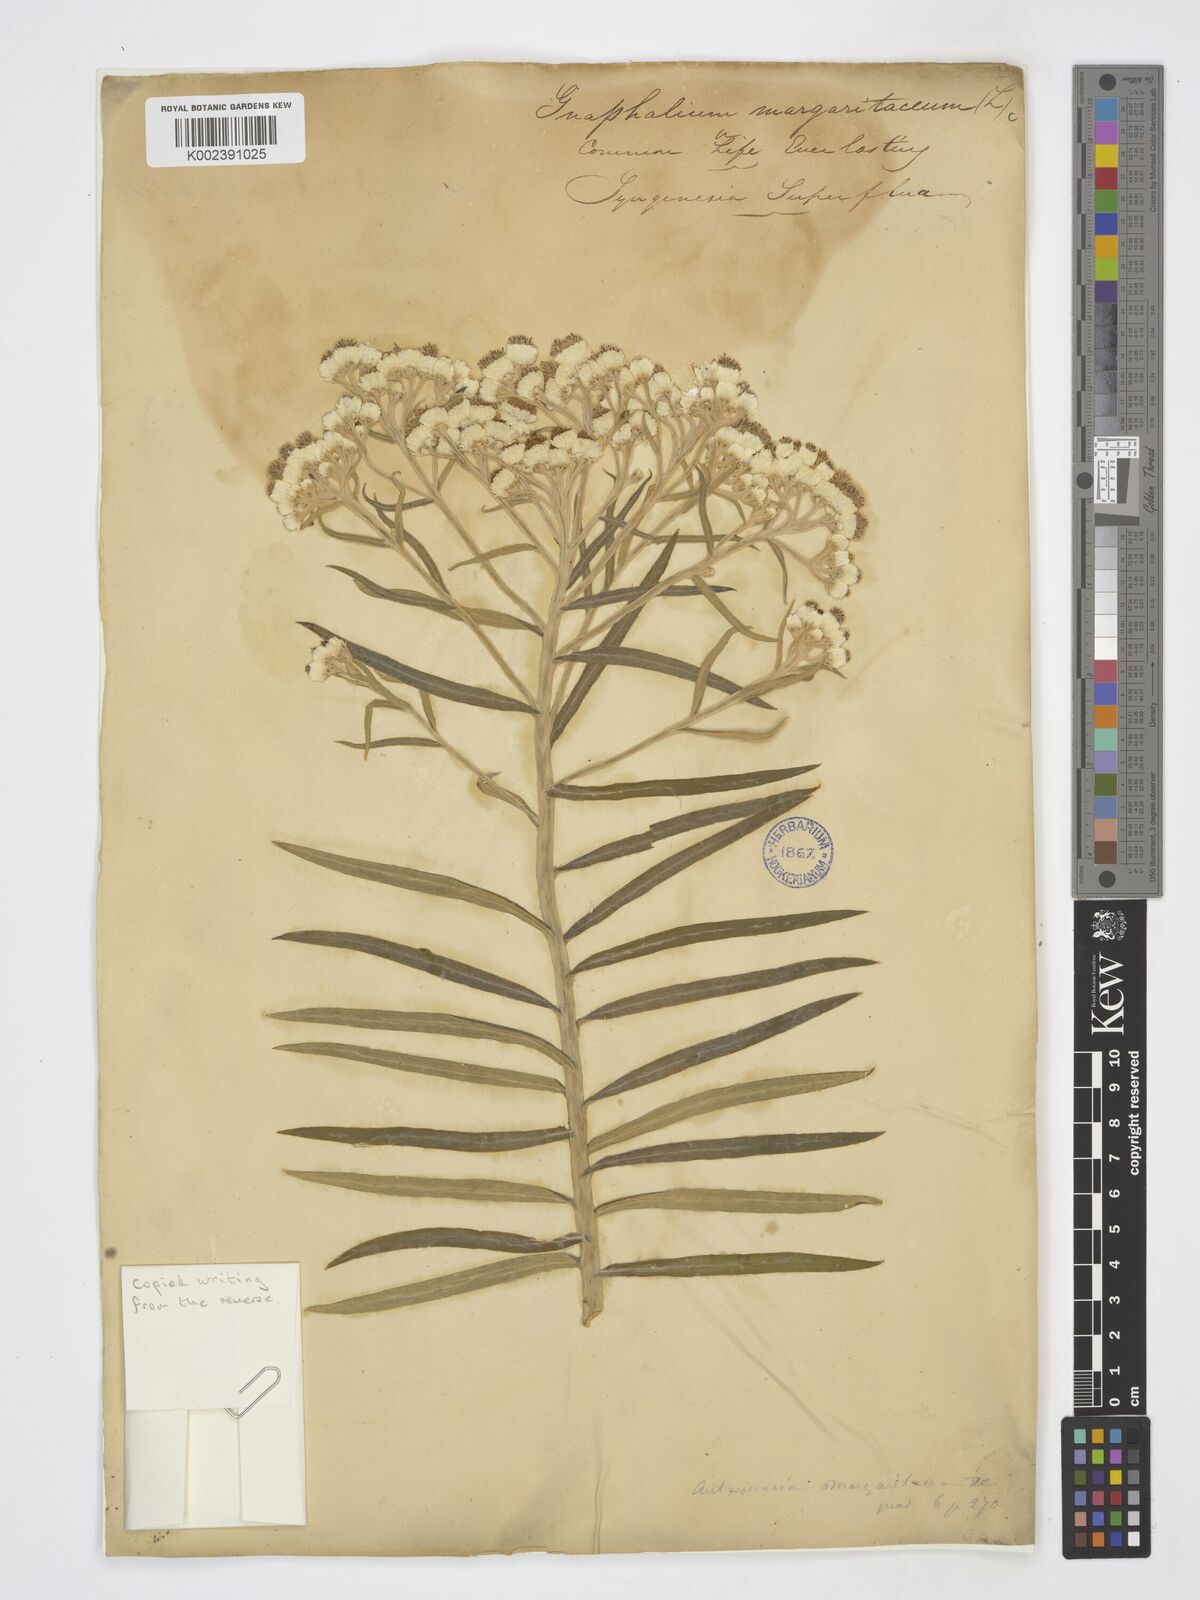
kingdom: Plantae
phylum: Tracheophyta
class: Magnoliopsida
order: Asterales
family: Asteraceae
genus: Anaphalis
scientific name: Anaphalis margaritacea
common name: Pearly everlasting
